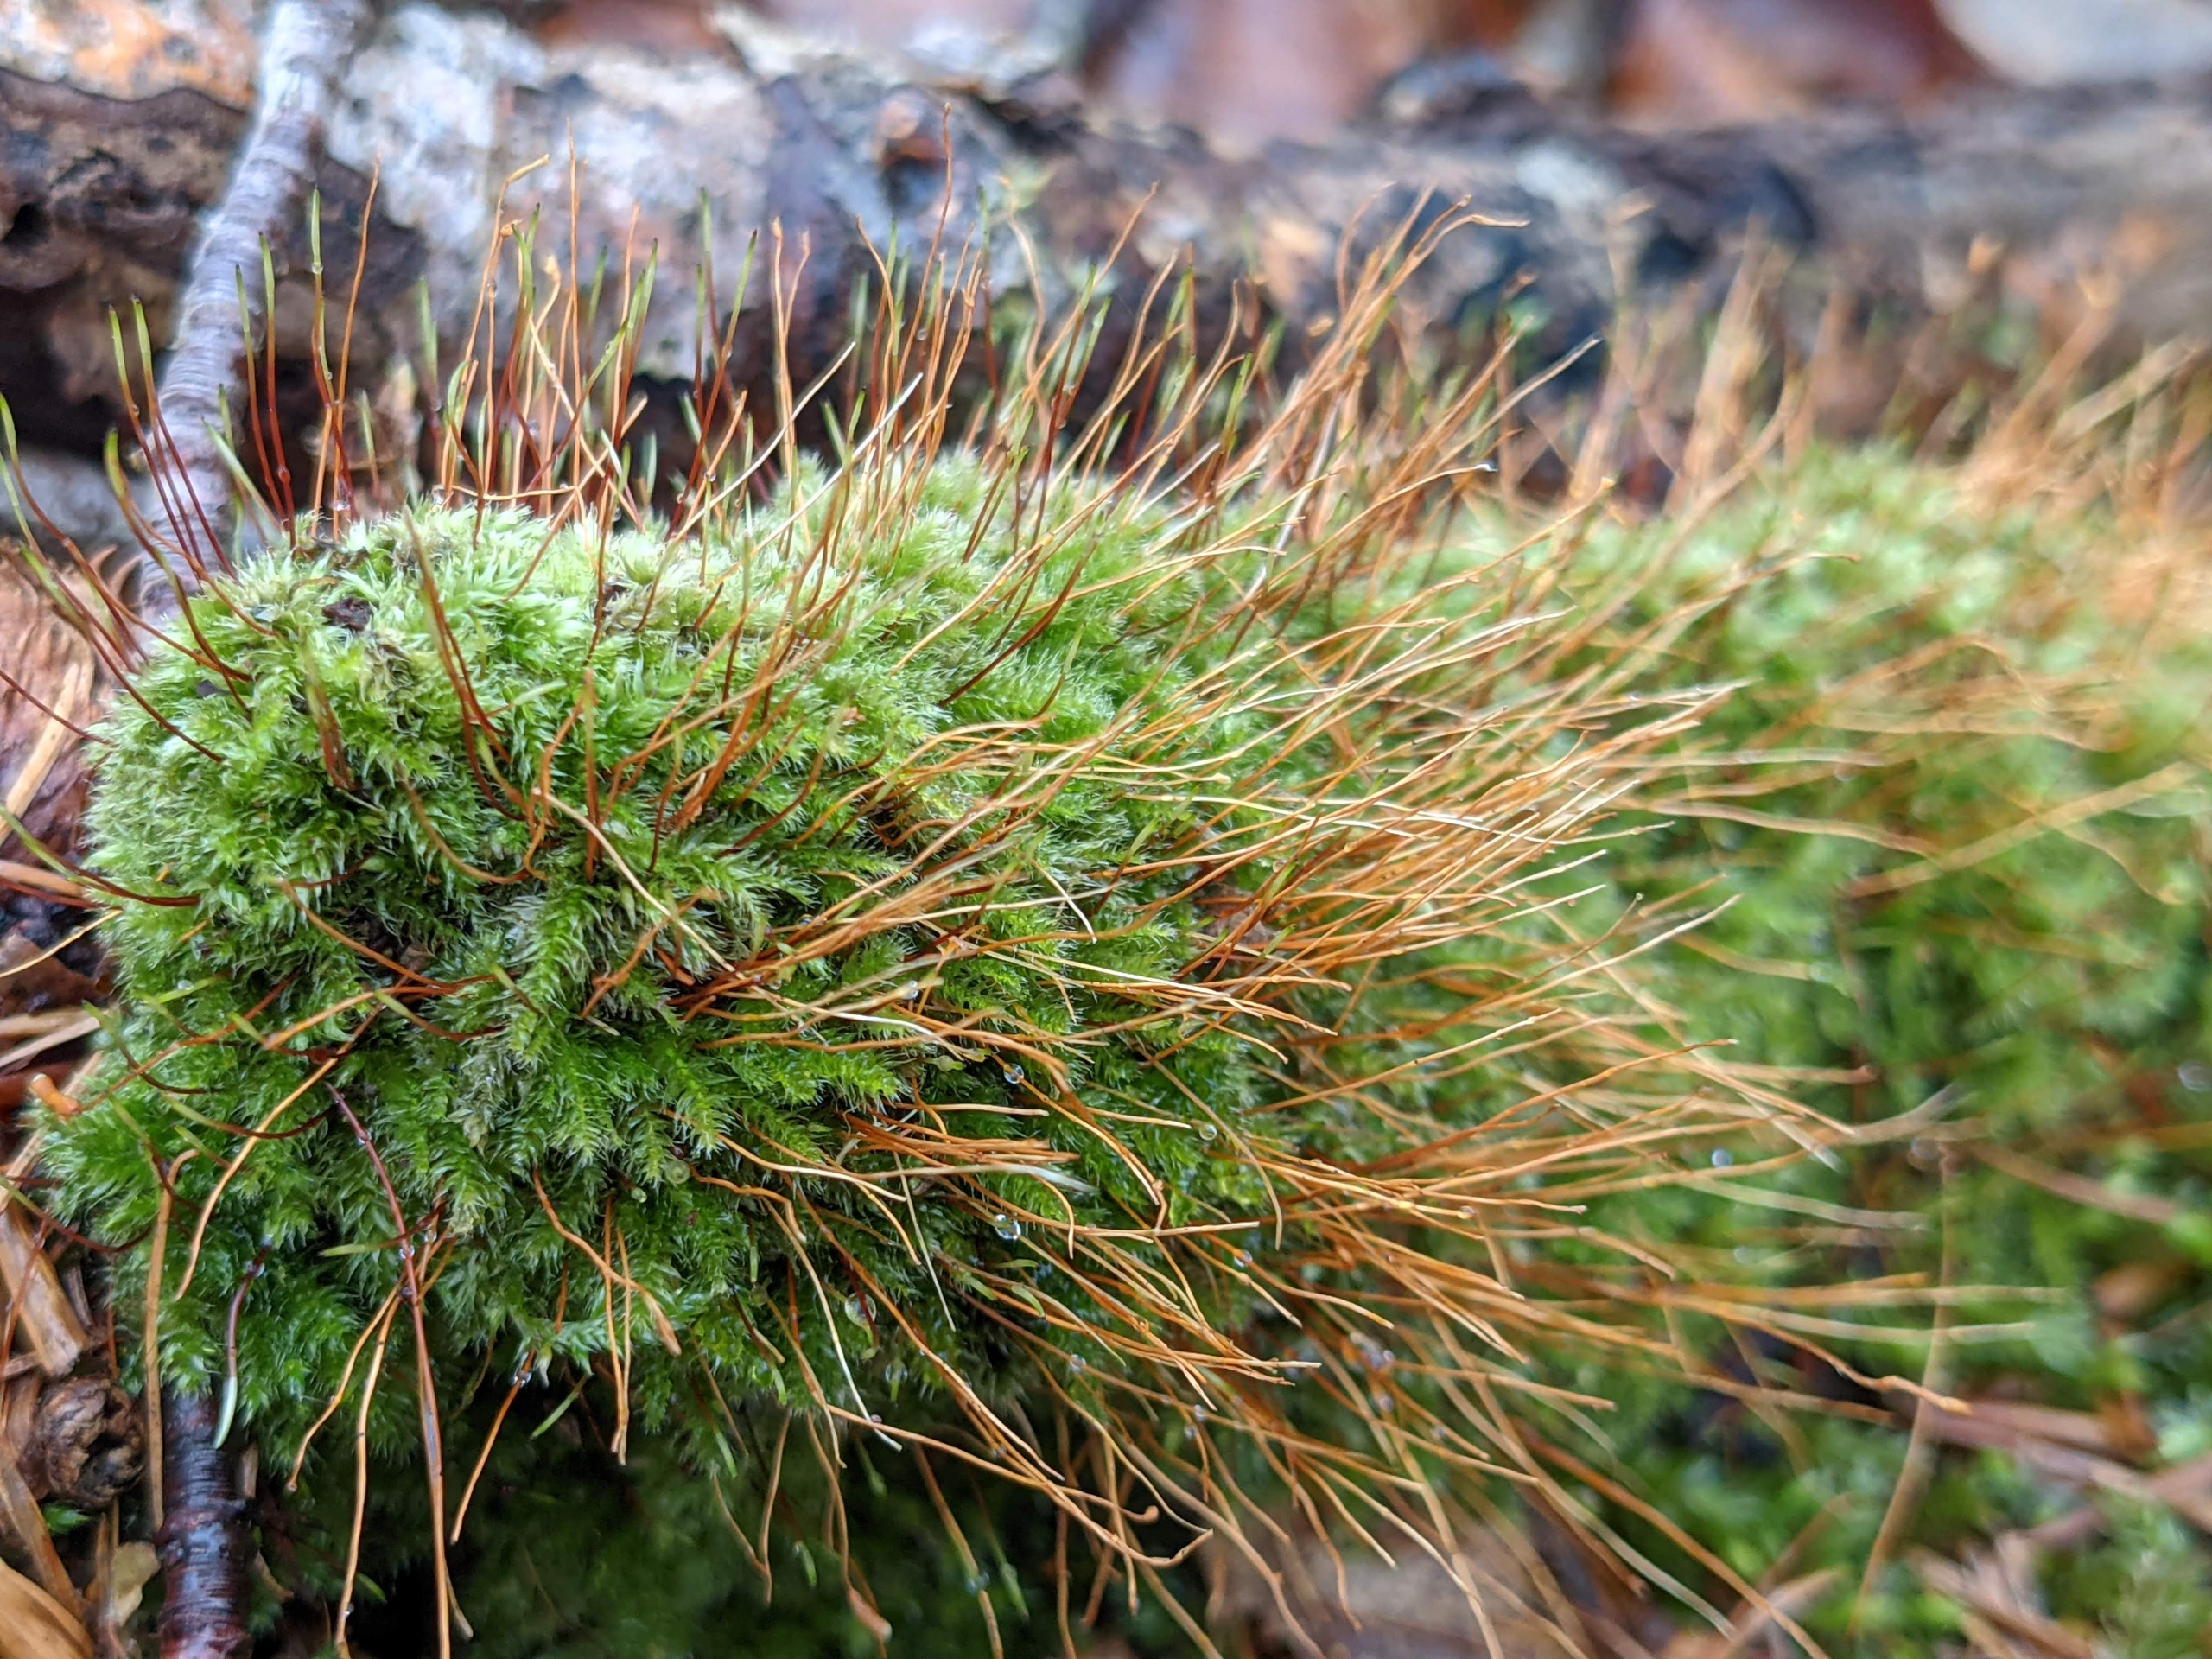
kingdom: Plantae
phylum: Bryophyta
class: Bryopsida
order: Hypnales
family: Plagiotheciaceae
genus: Herzogiella
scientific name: Herzogiella seligeri
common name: Stub-pølsekapsel
